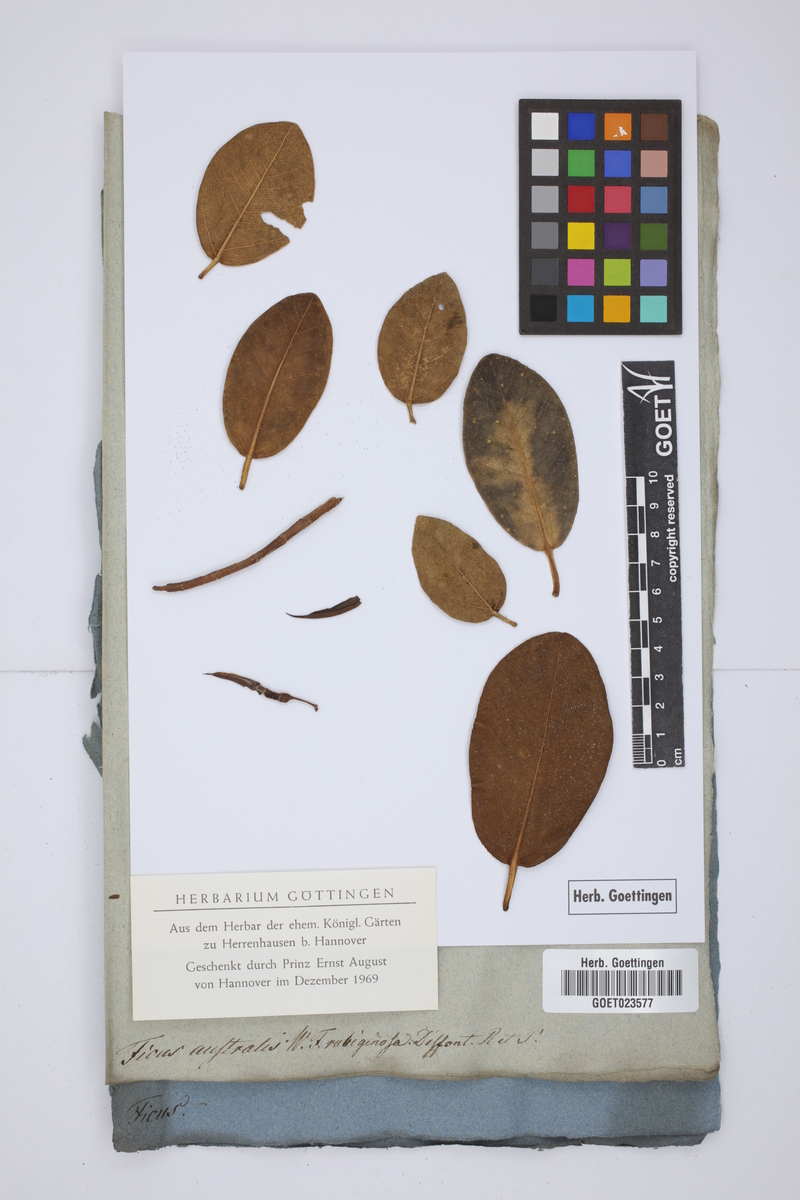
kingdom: Plantae
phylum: Tracheophyta
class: Magnoliopsida
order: Rosales
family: Moraceae
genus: Ficus
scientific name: Ficus rubiginosa
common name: Port jackson fig
